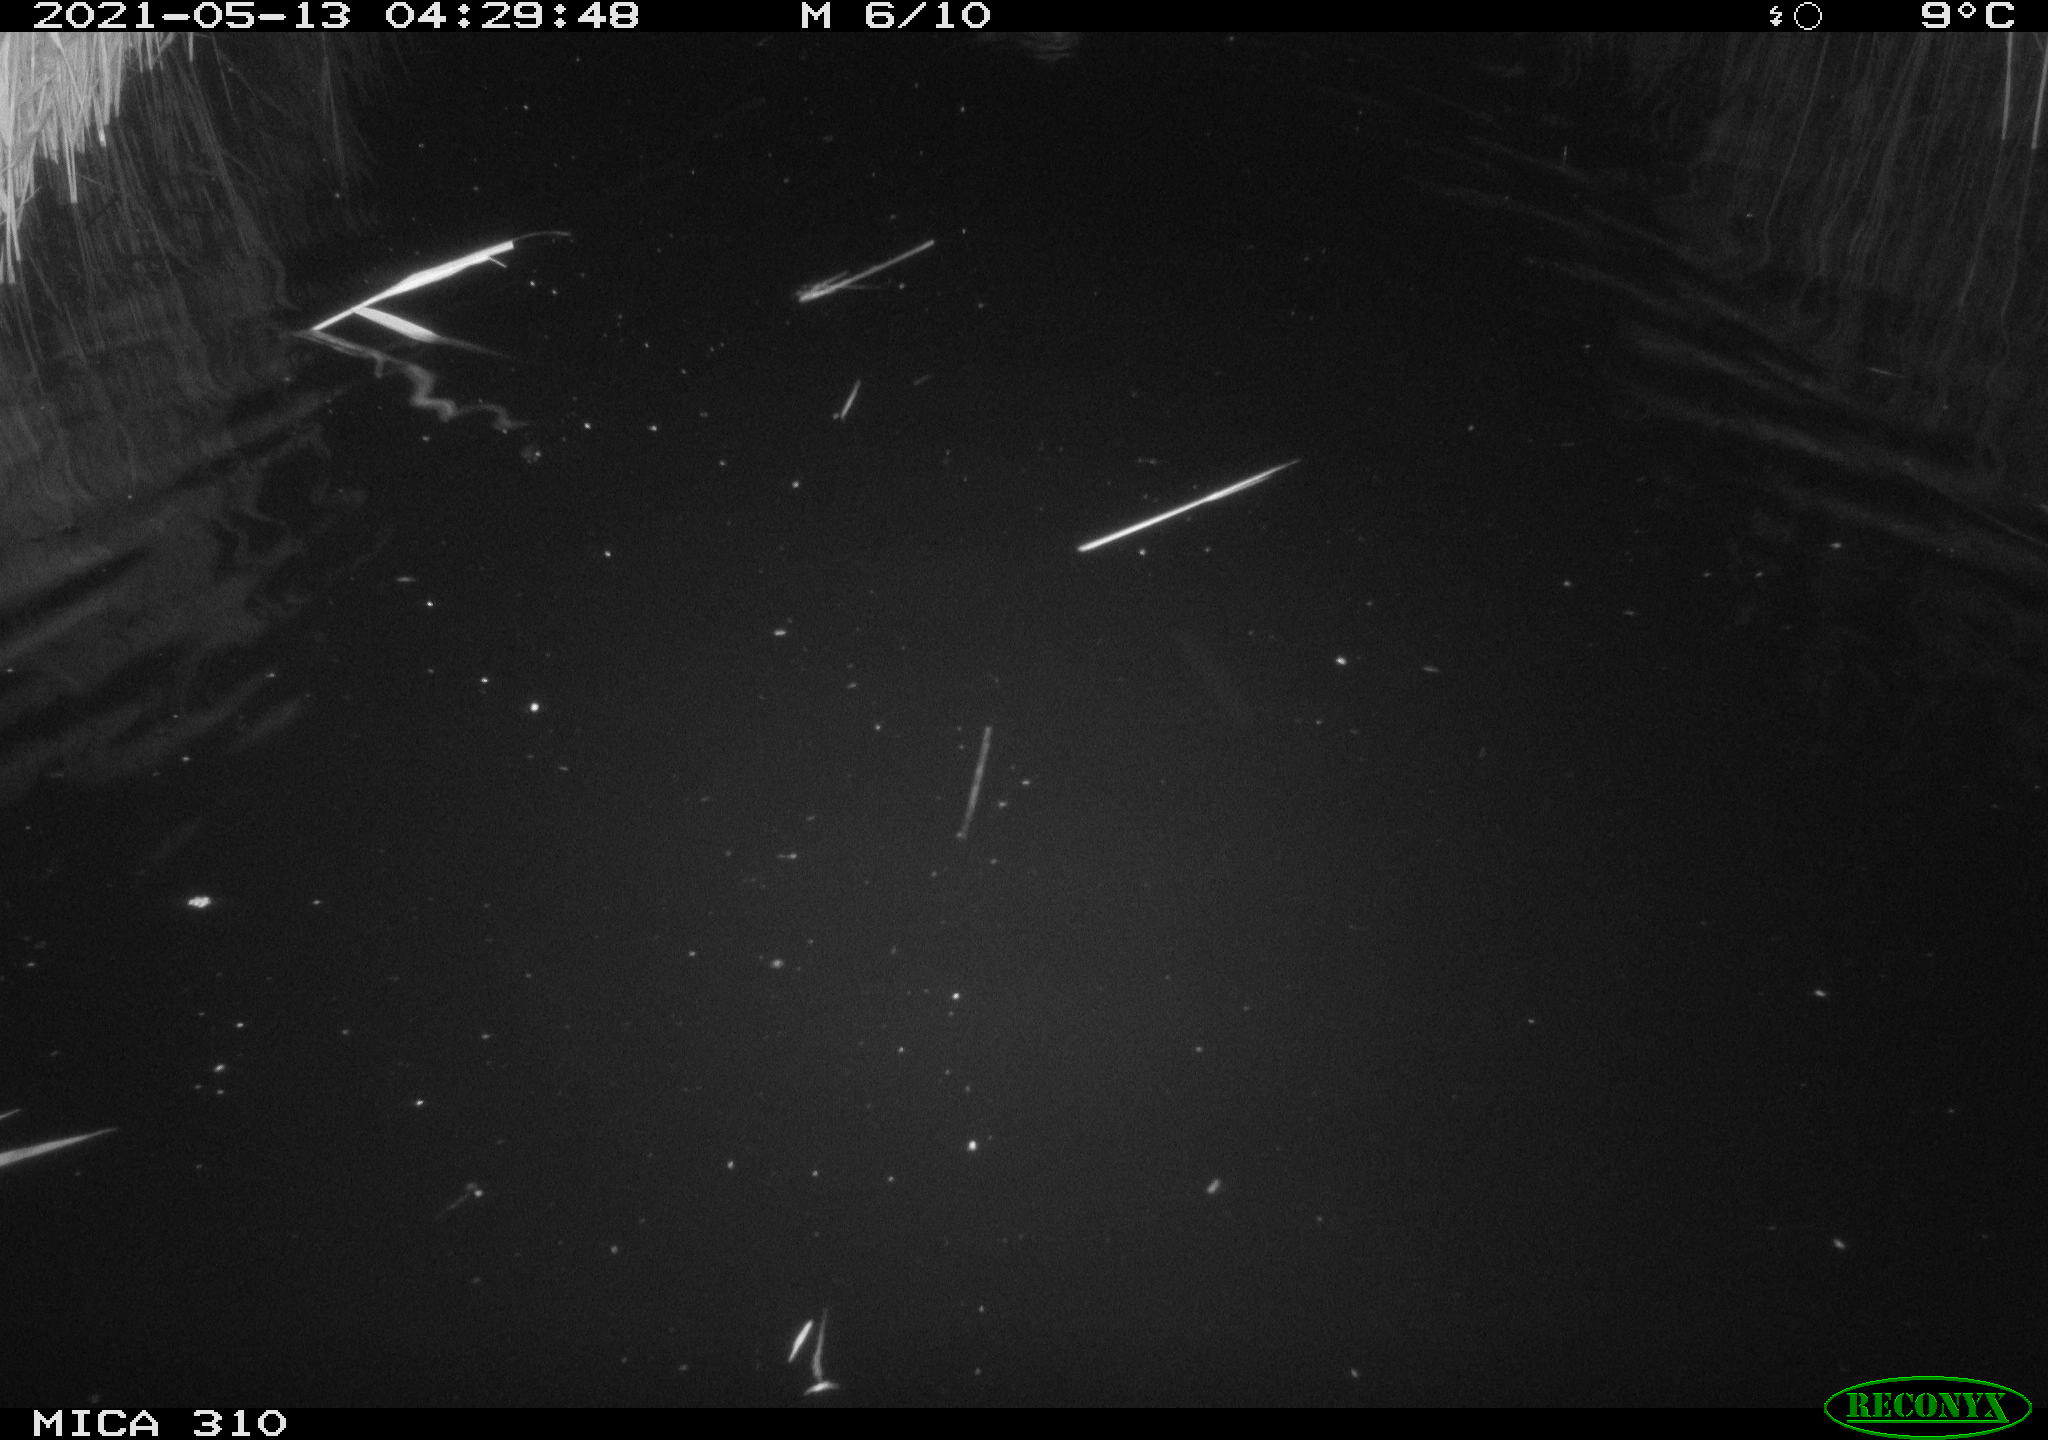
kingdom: Animalia
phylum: Chordata
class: Aves
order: Anseriformes
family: Anatidae
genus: Anas
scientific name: Anas platyrhynchos
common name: Mallard
